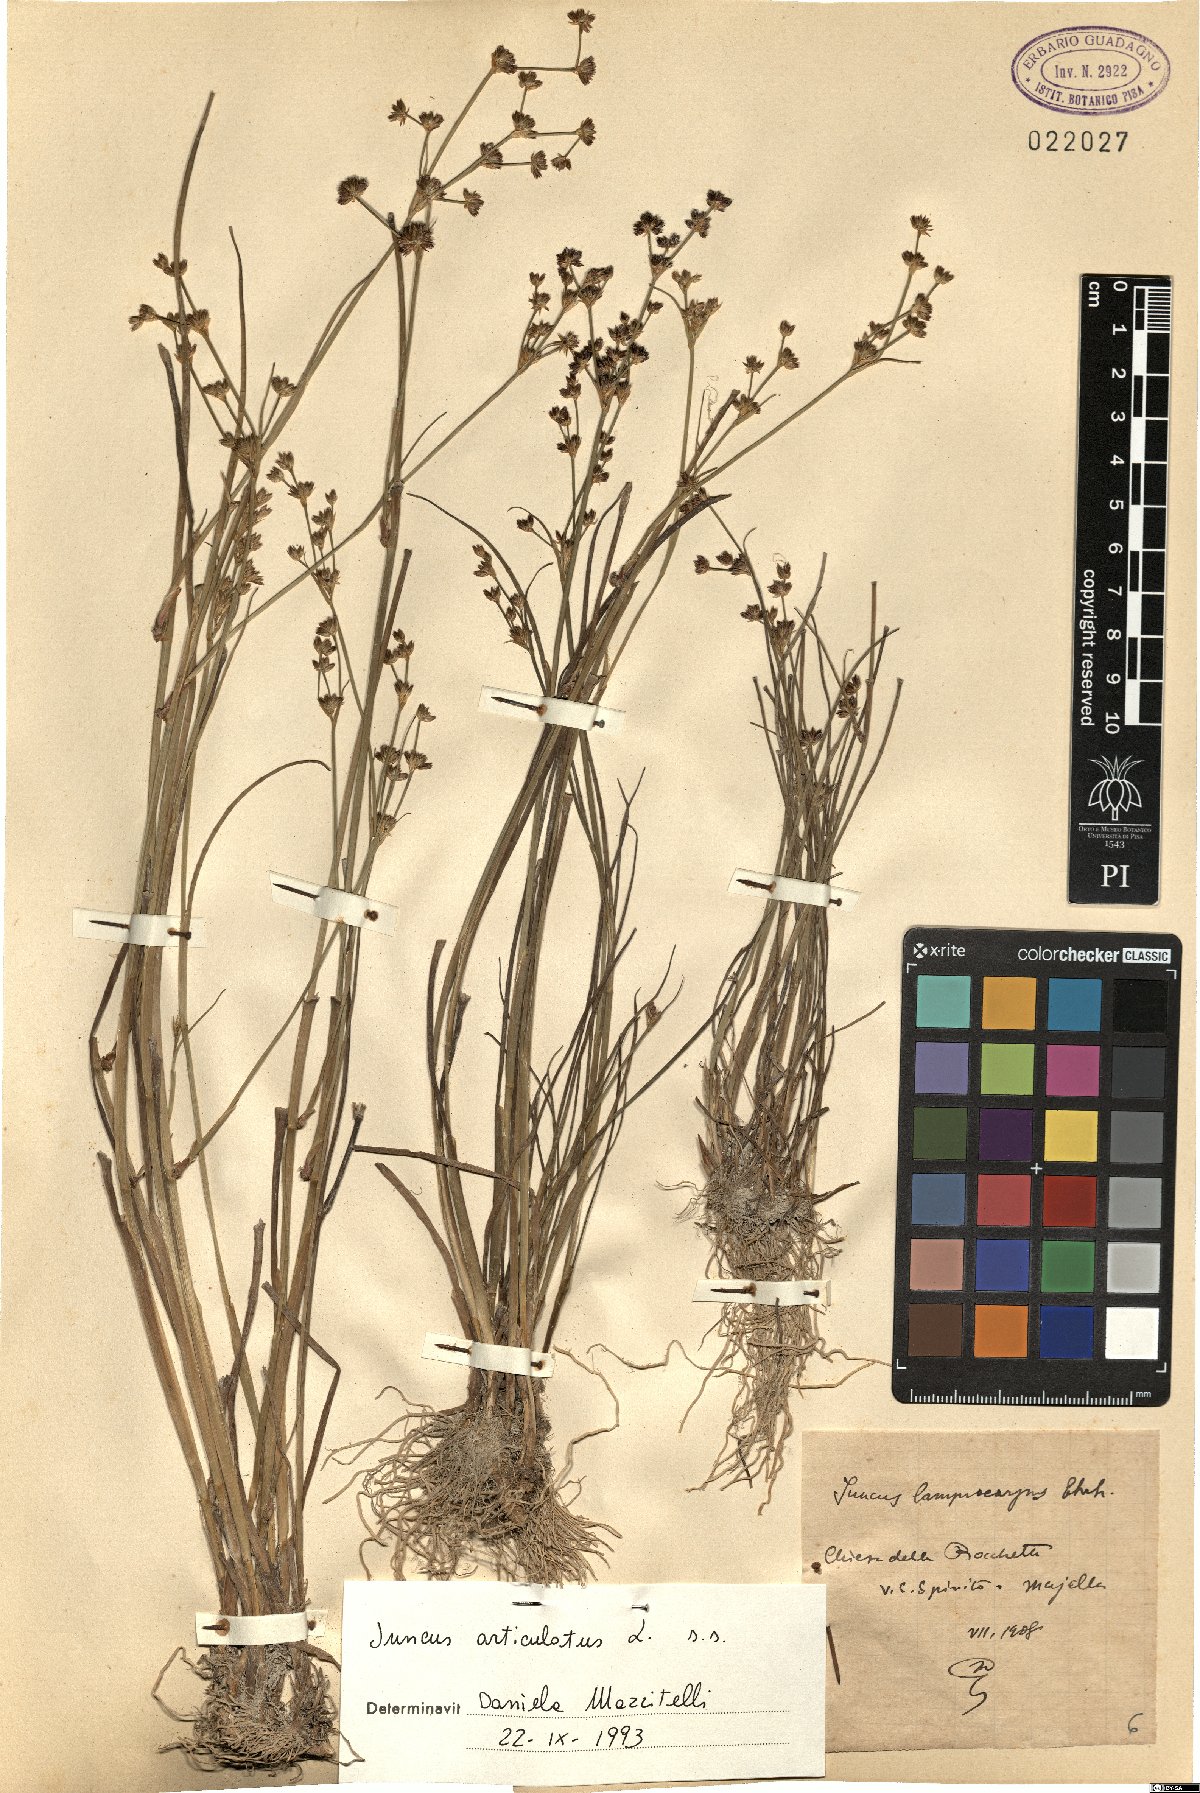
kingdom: Plantae
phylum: Tracheophyta
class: Liliopsida
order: Poales
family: Juncaceae
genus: Juncus
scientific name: Juncus articulatus
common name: Jointed rush
